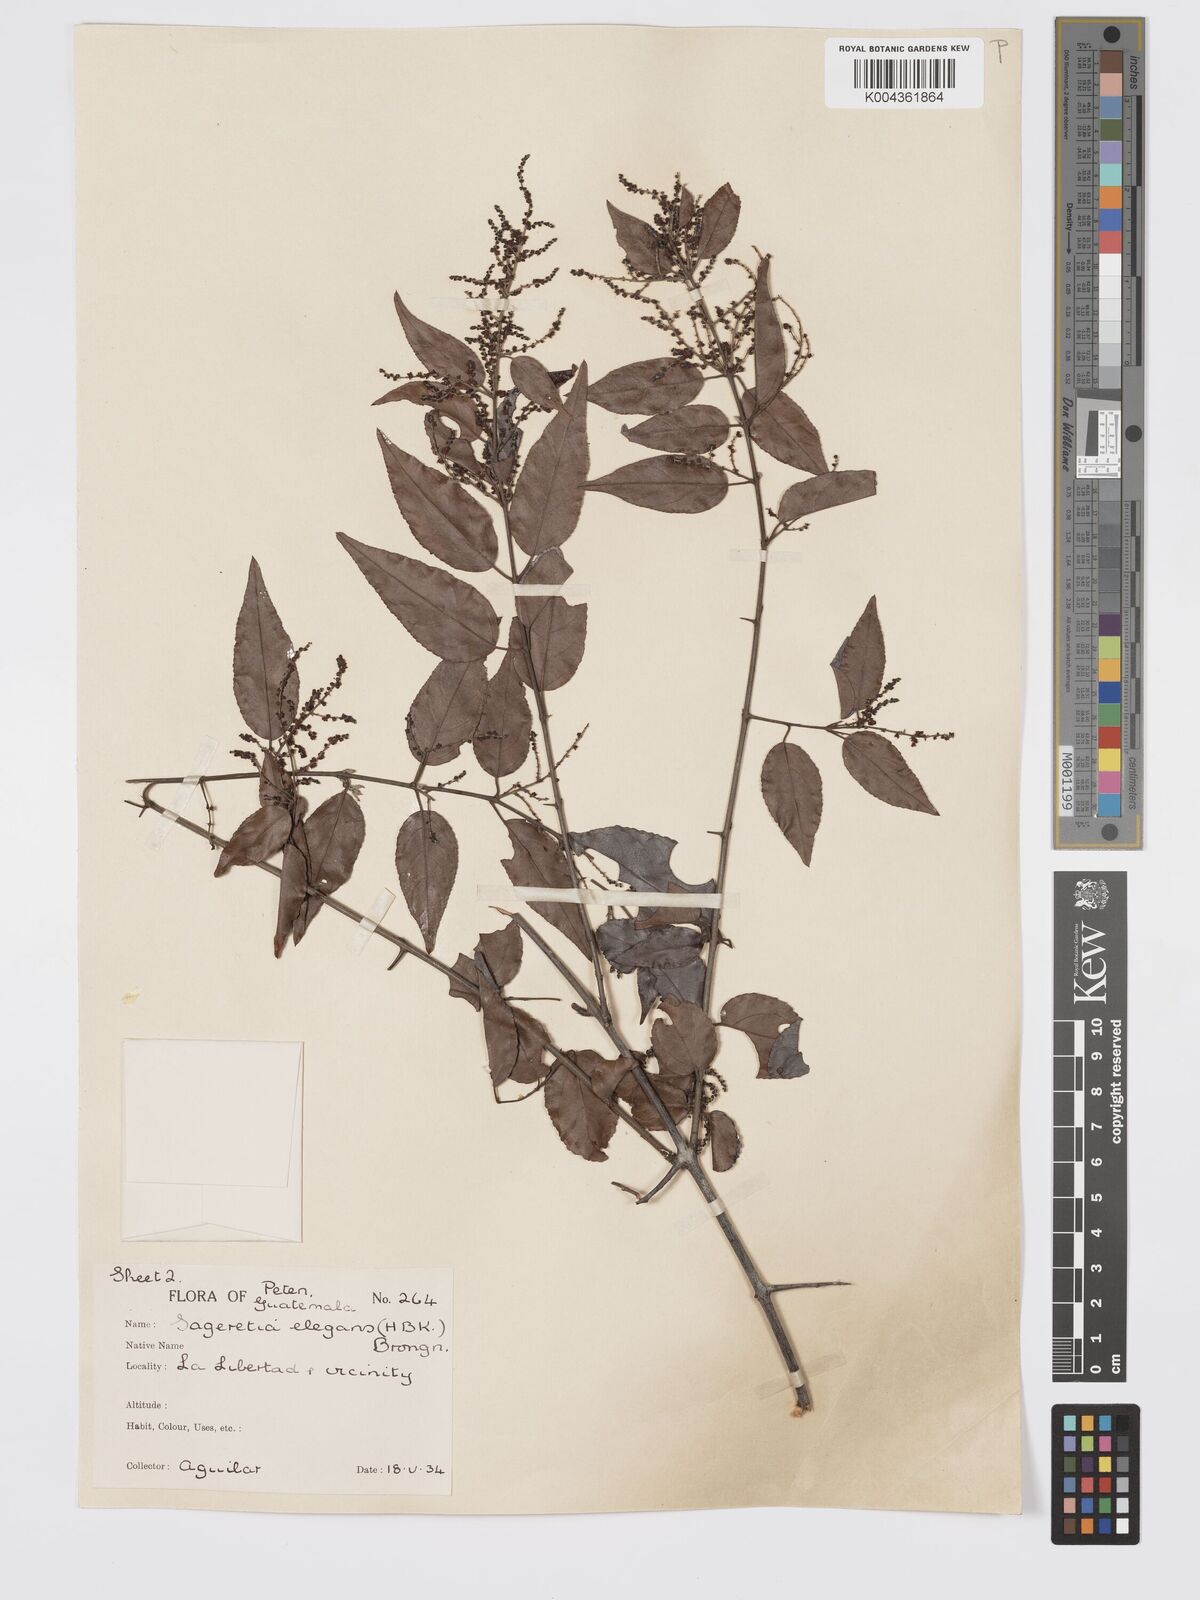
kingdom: Plantae
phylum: Tracheophyta
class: Magnoliopsida
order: Rosales
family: Rhamnaceae
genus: Sageretia
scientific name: Sageretia elegans
